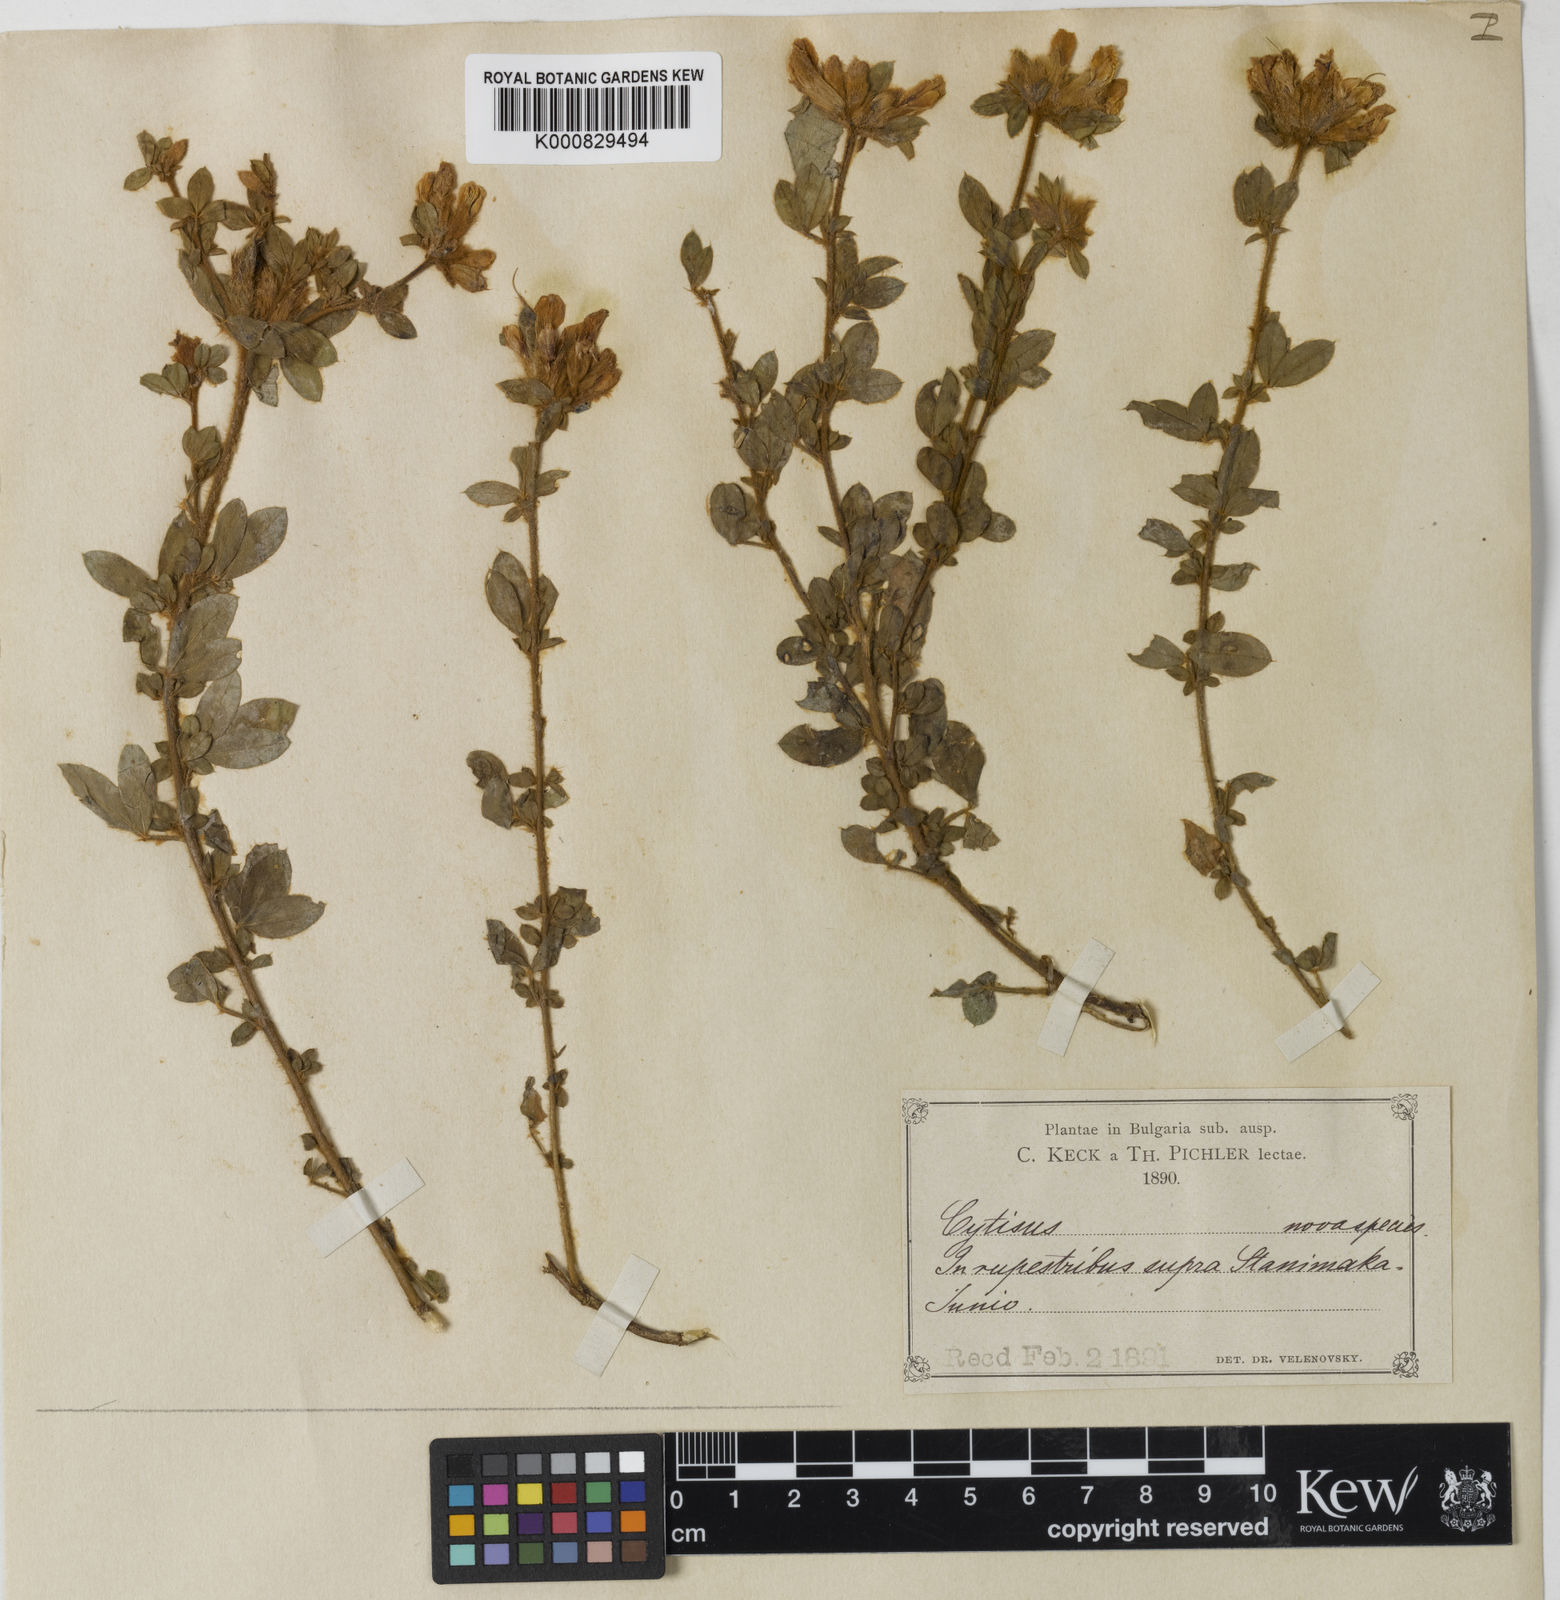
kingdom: Plantae
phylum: Tracheophyta
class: Magnoliopsida
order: Fabales
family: Fabaceae
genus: Chamaecytisus
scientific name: Chamaecytisus frivaldszkyanus
